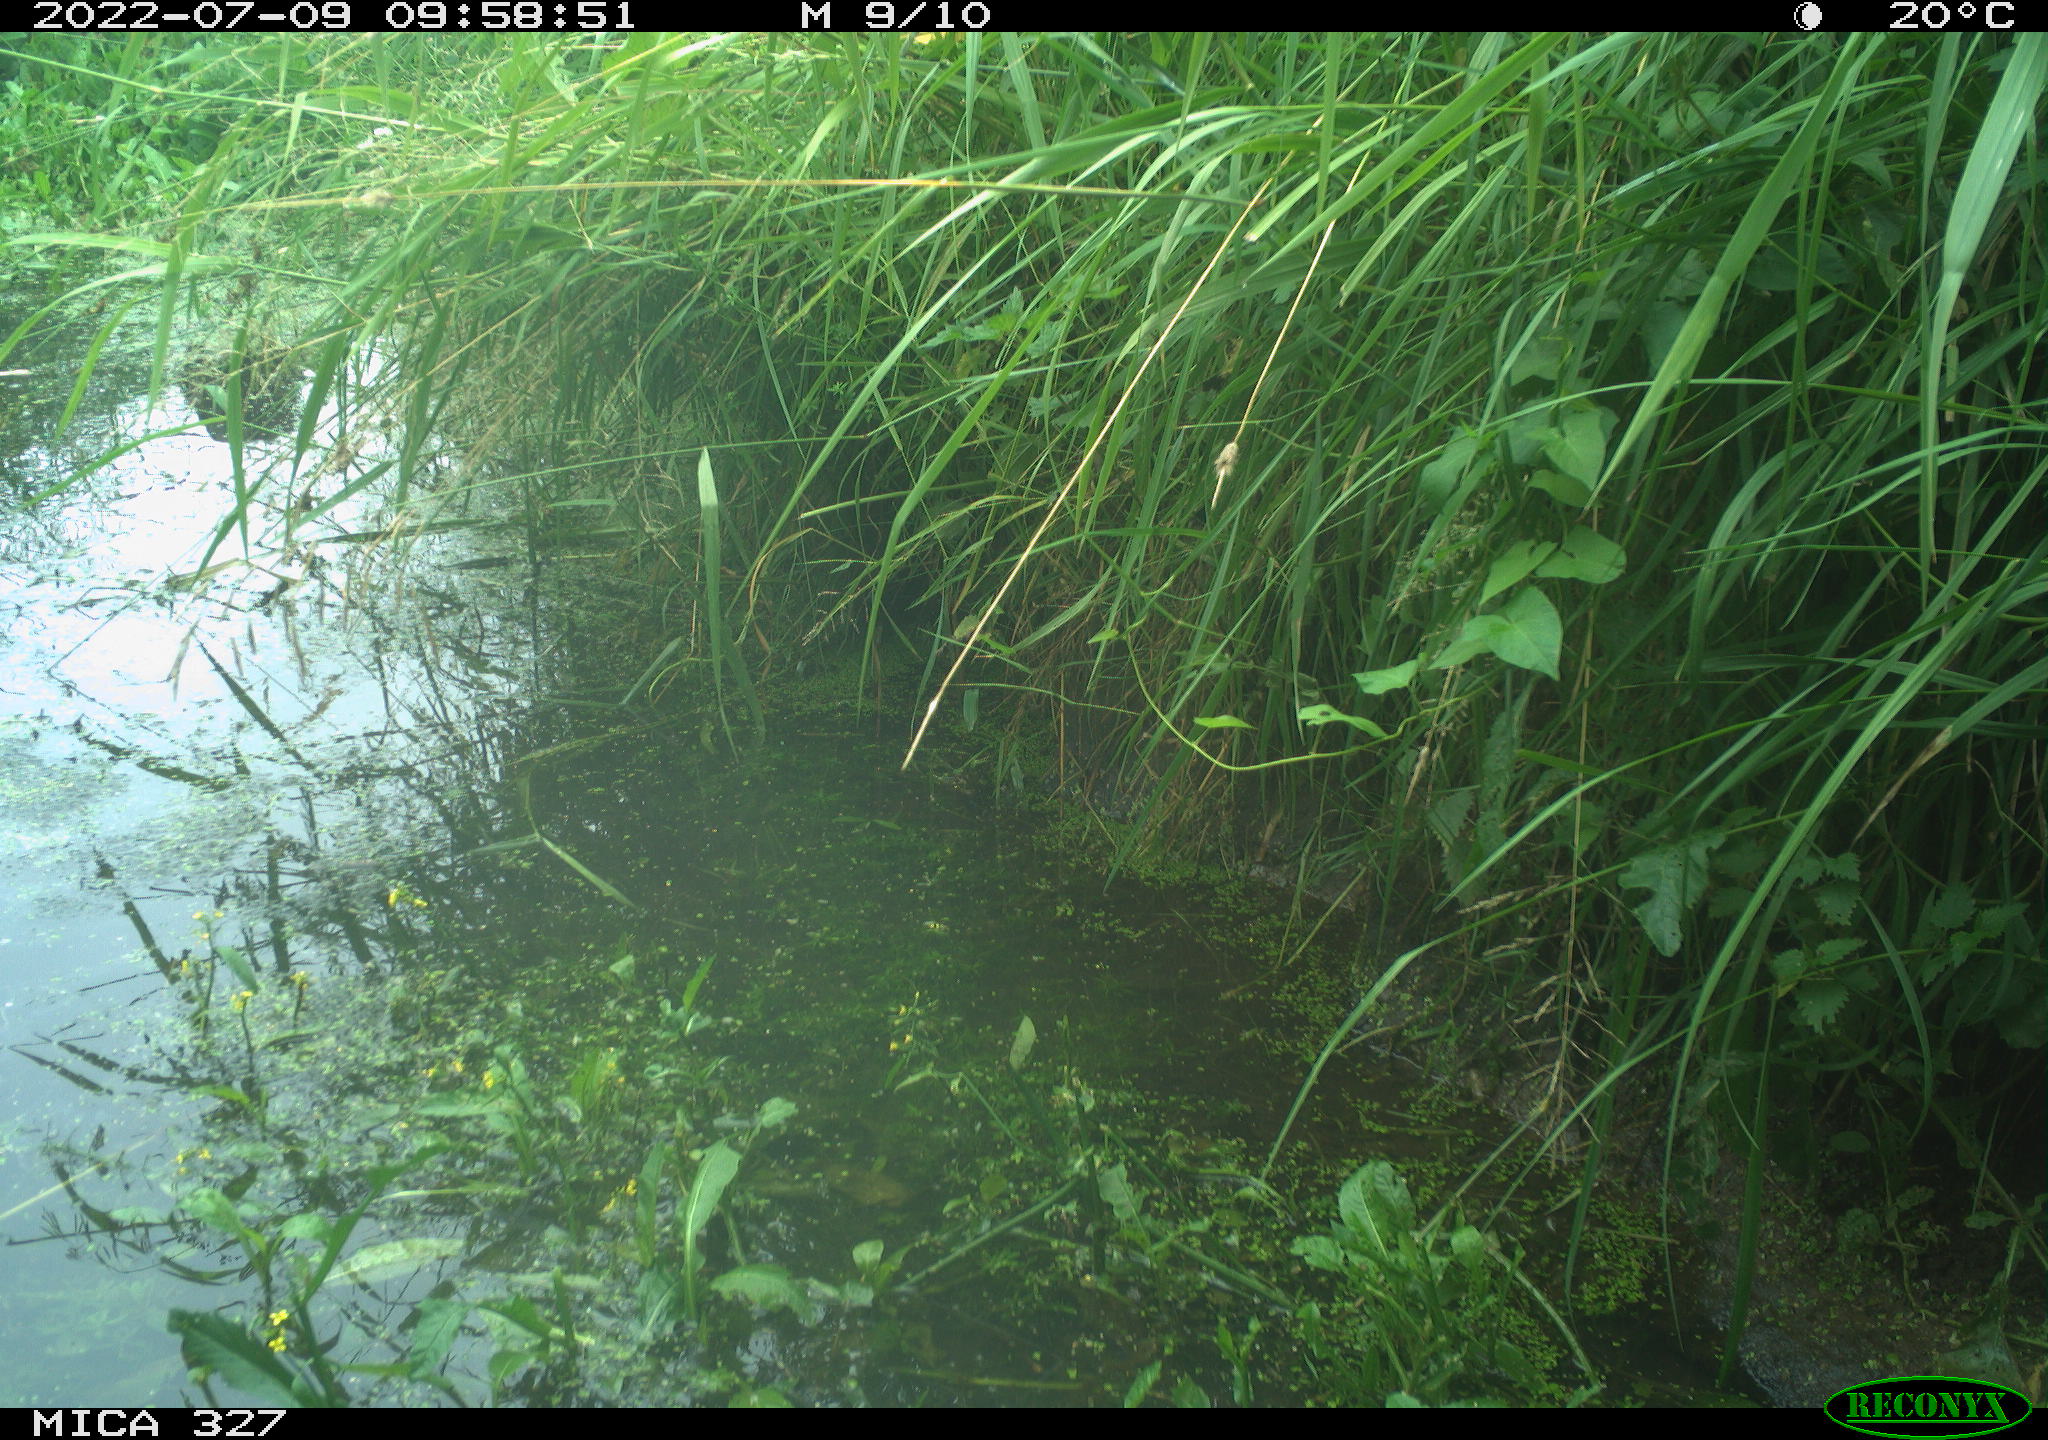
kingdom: Animalia
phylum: Chordata
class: Aves
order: Gruiformes
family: Rallidae
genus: Gallinula
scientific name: Gallinula chloropus
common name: Common moorhen
